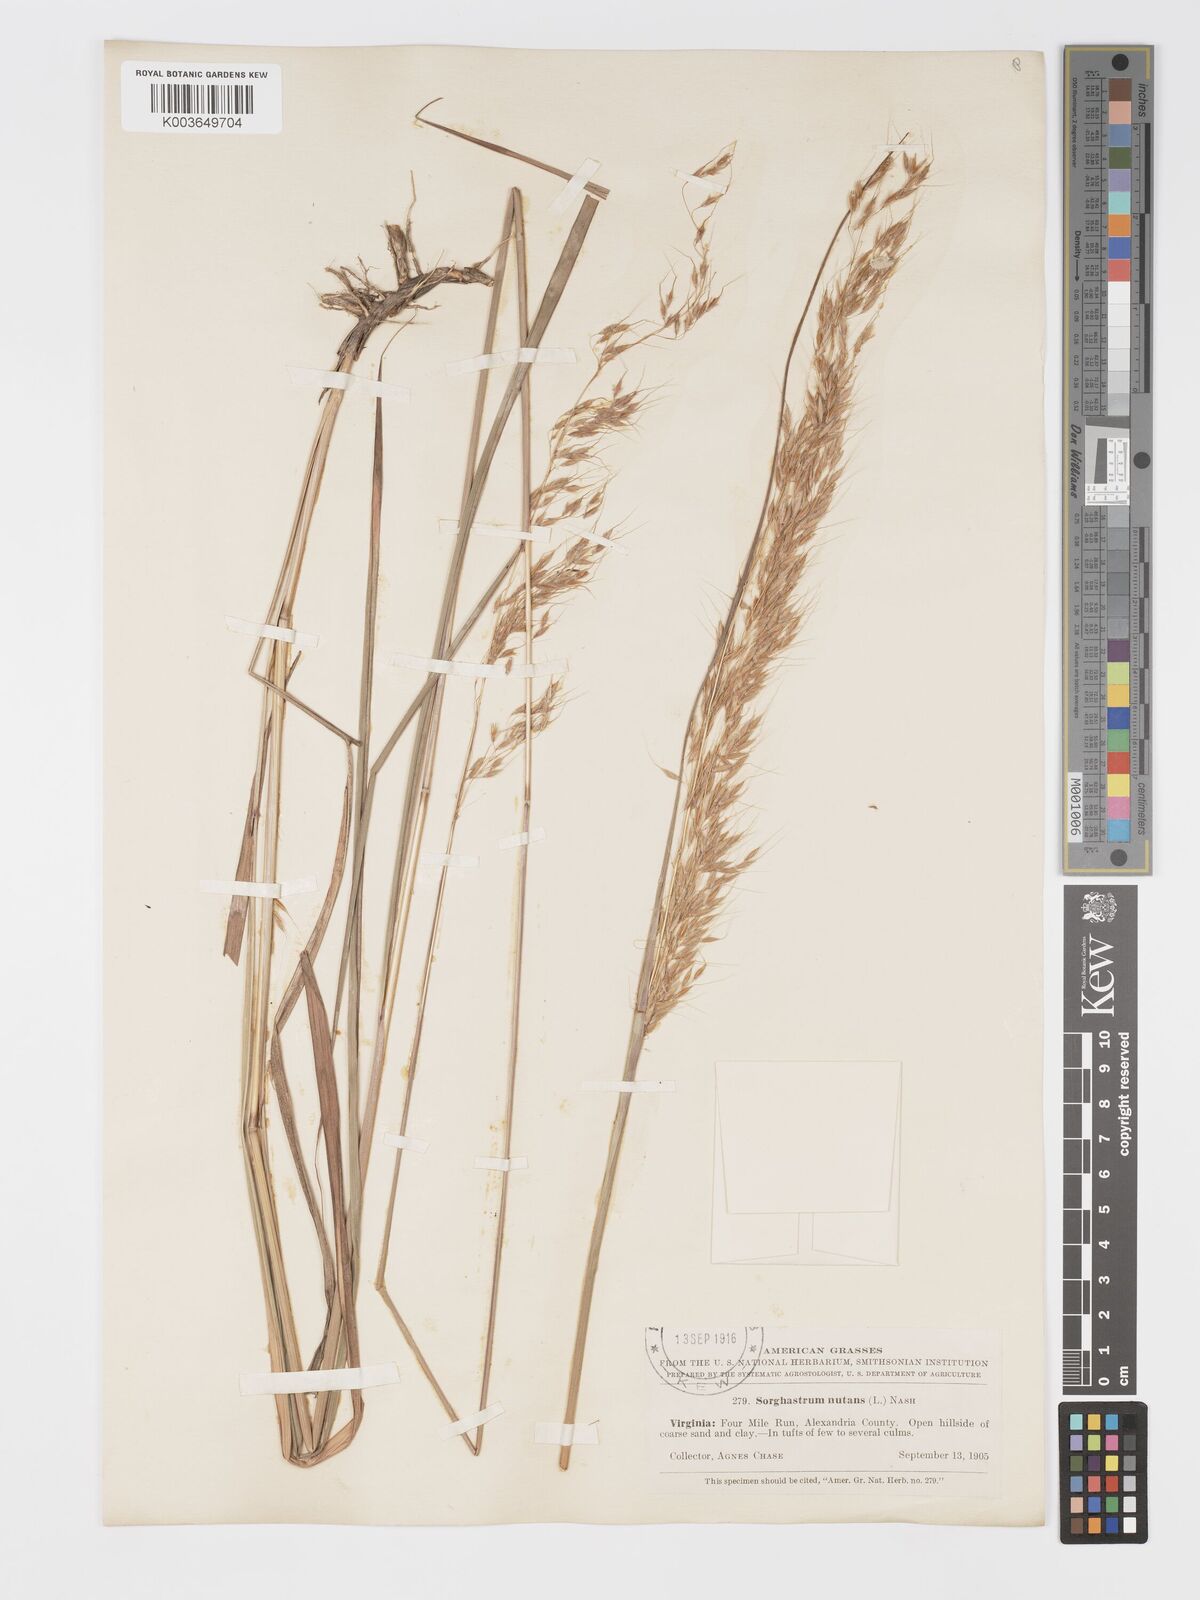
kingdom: Plantae
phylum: Tracheophyta
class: Liliopsida
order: Poales
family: Poaceae
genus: Sorghastrum
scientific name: Sorghastrum nutans
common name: Indian grass
